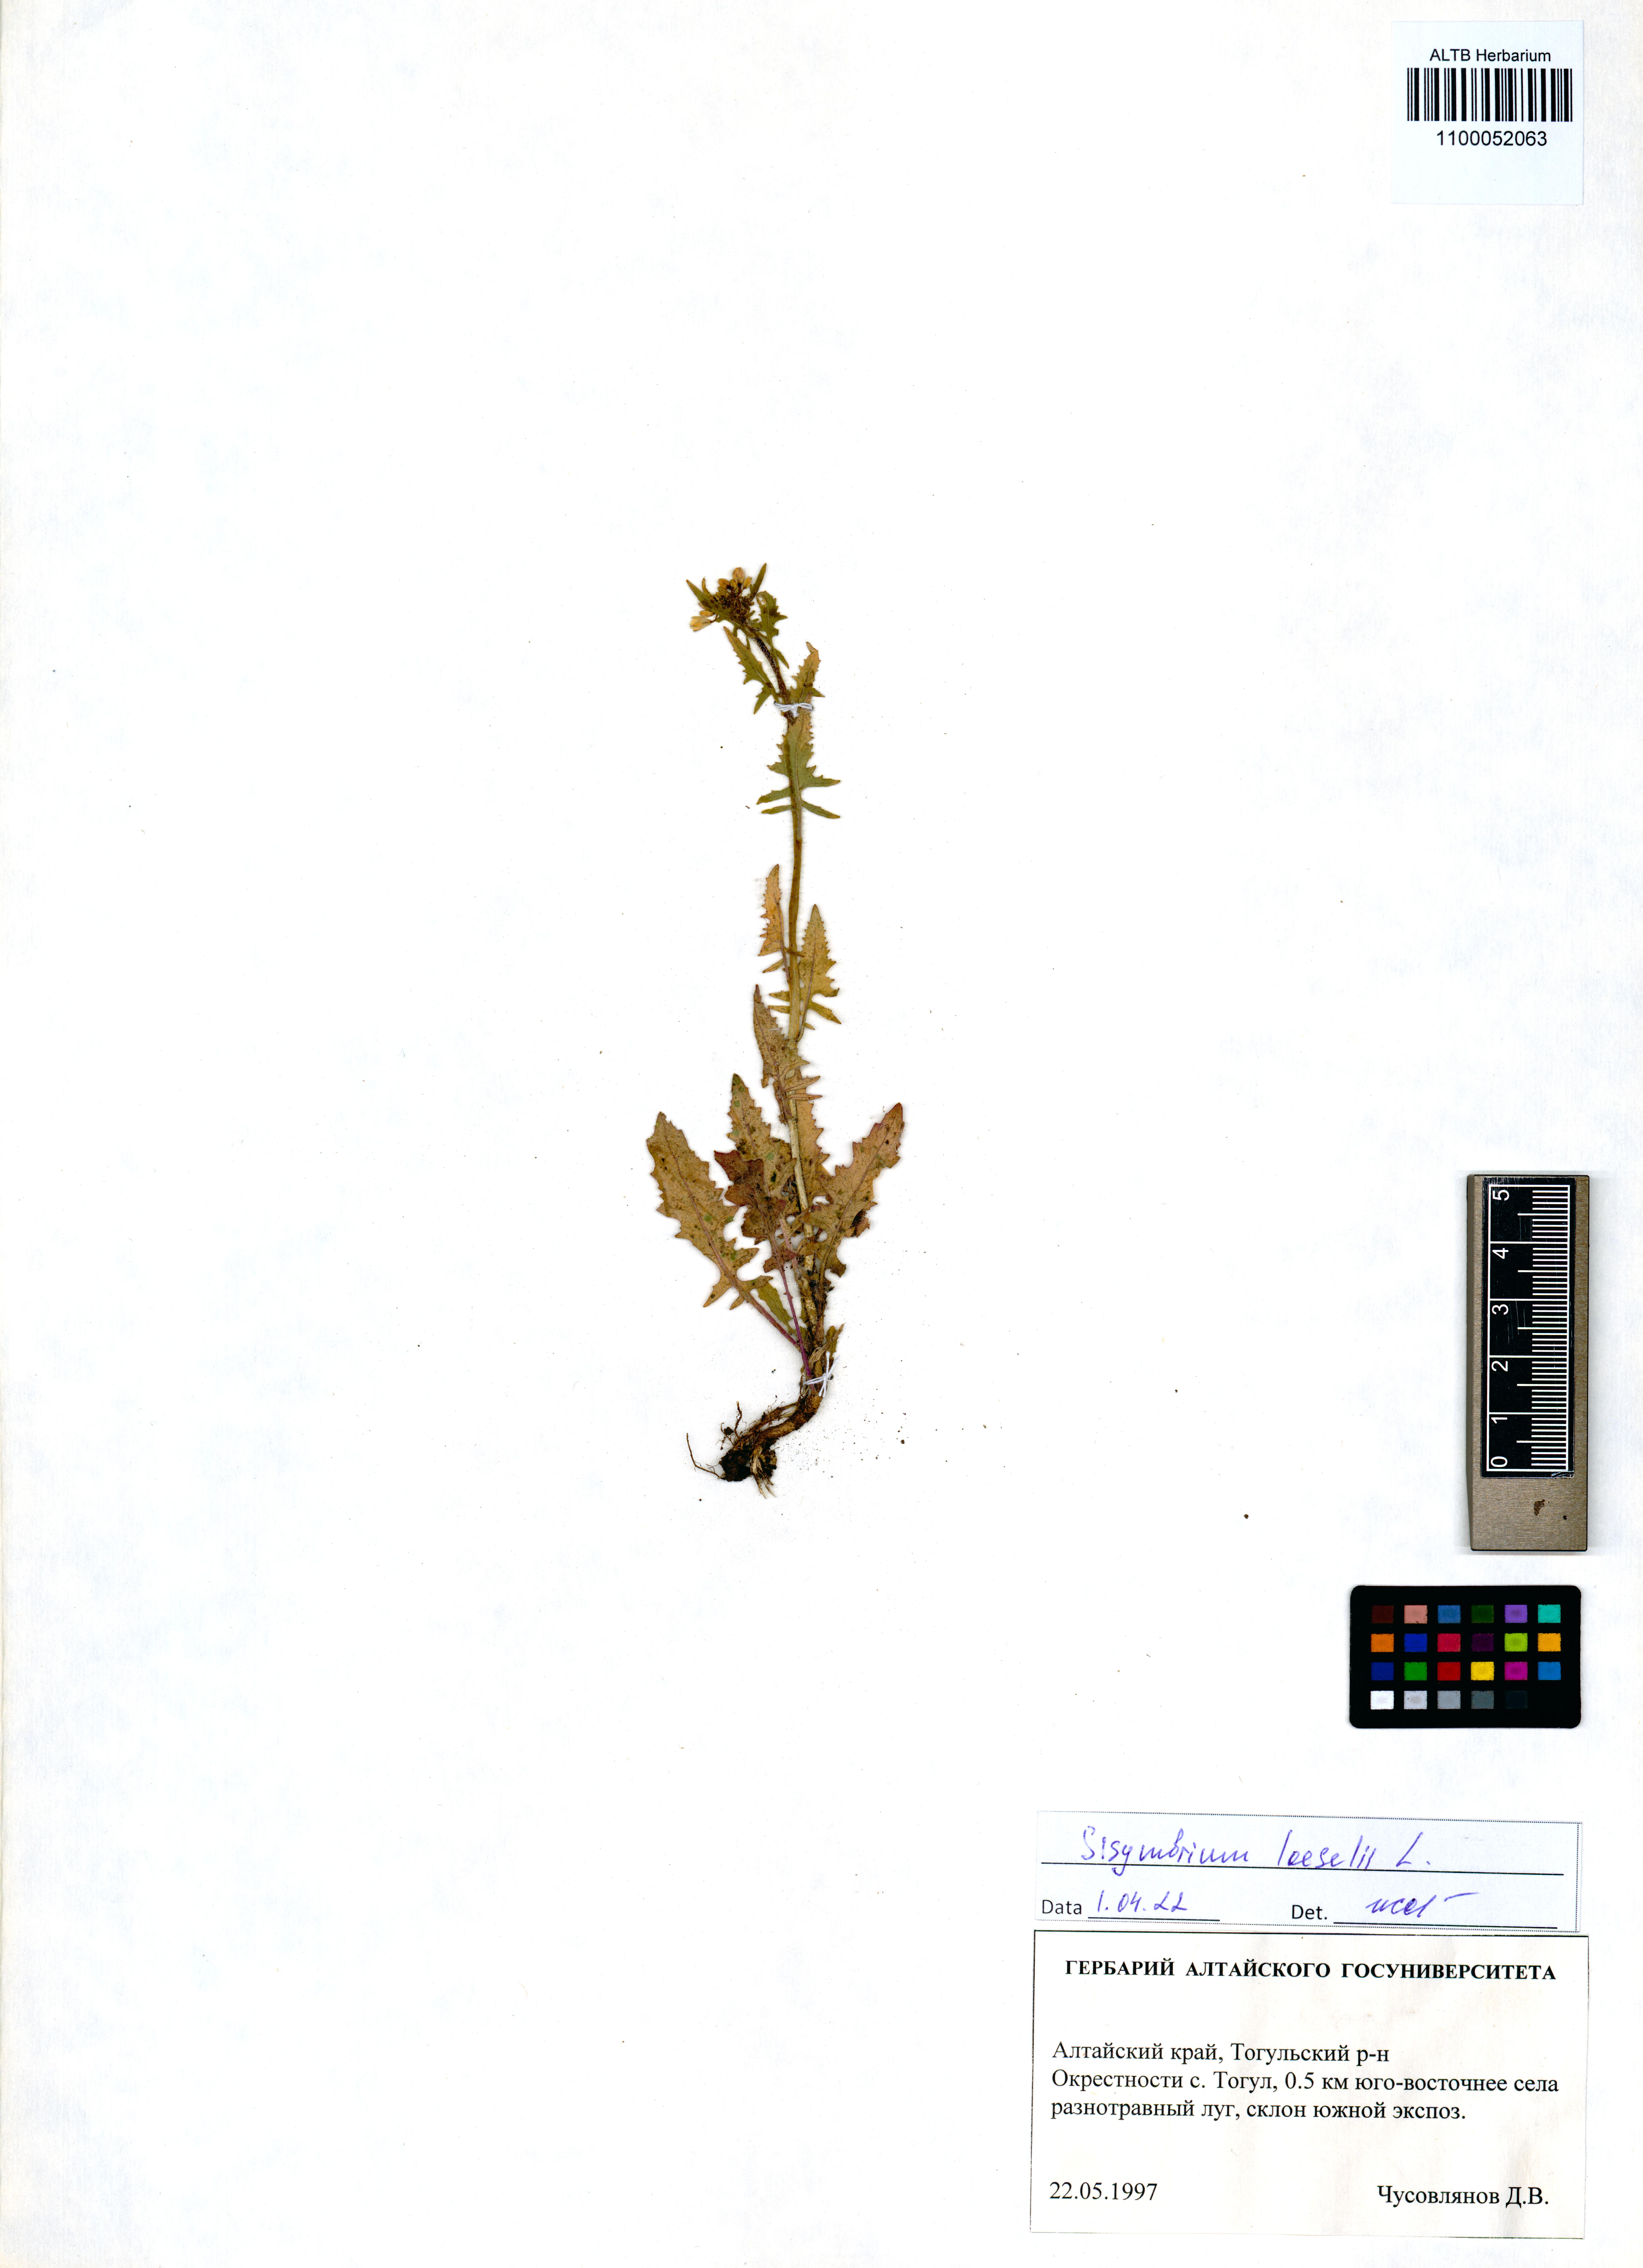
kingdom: Plantae
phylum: Tracheophyta
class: Magnoliopsida
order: Brassicales
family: Brassicaceae
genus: Sisymbrium
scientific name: Sisymbrium loeselii
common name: False london-rocket
